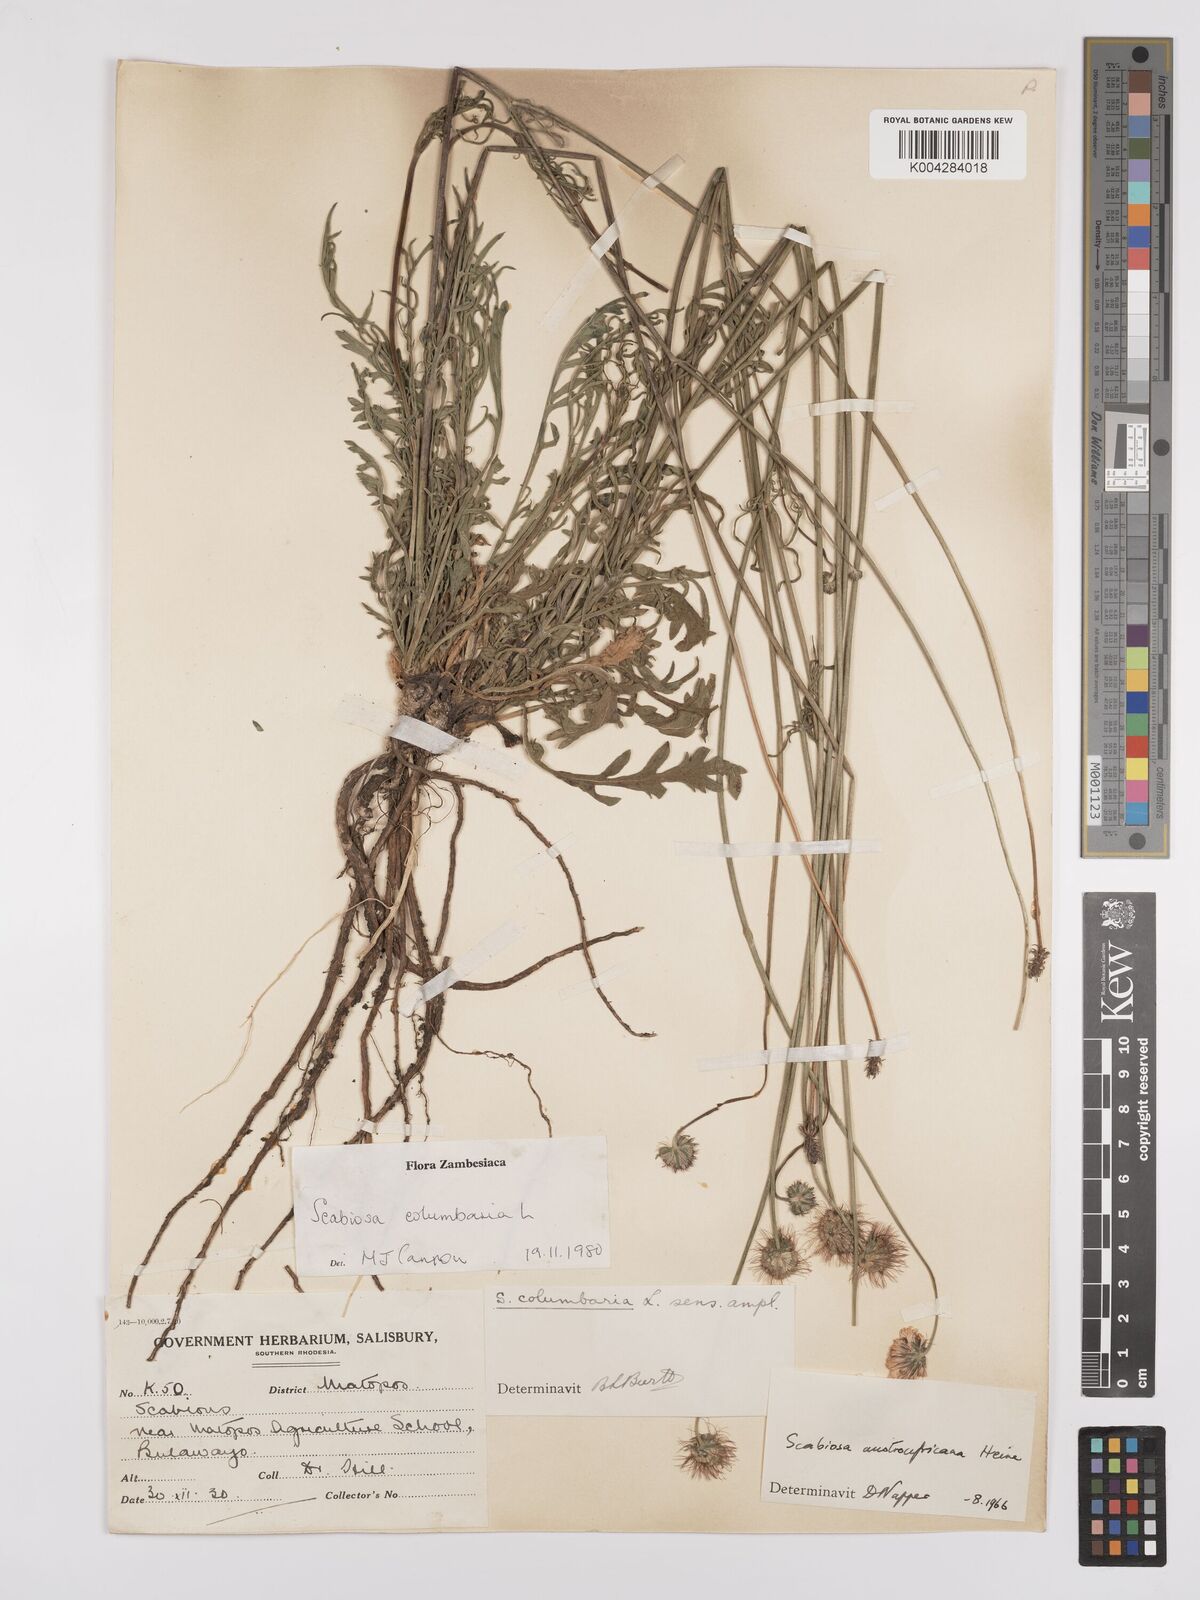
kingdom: Plantae
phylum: Tracheophyta
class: Magnoliopsida
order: Dipsacales
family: Caprifoliaceae
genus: Scabiosa
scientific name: Scabiosa austroafricana
